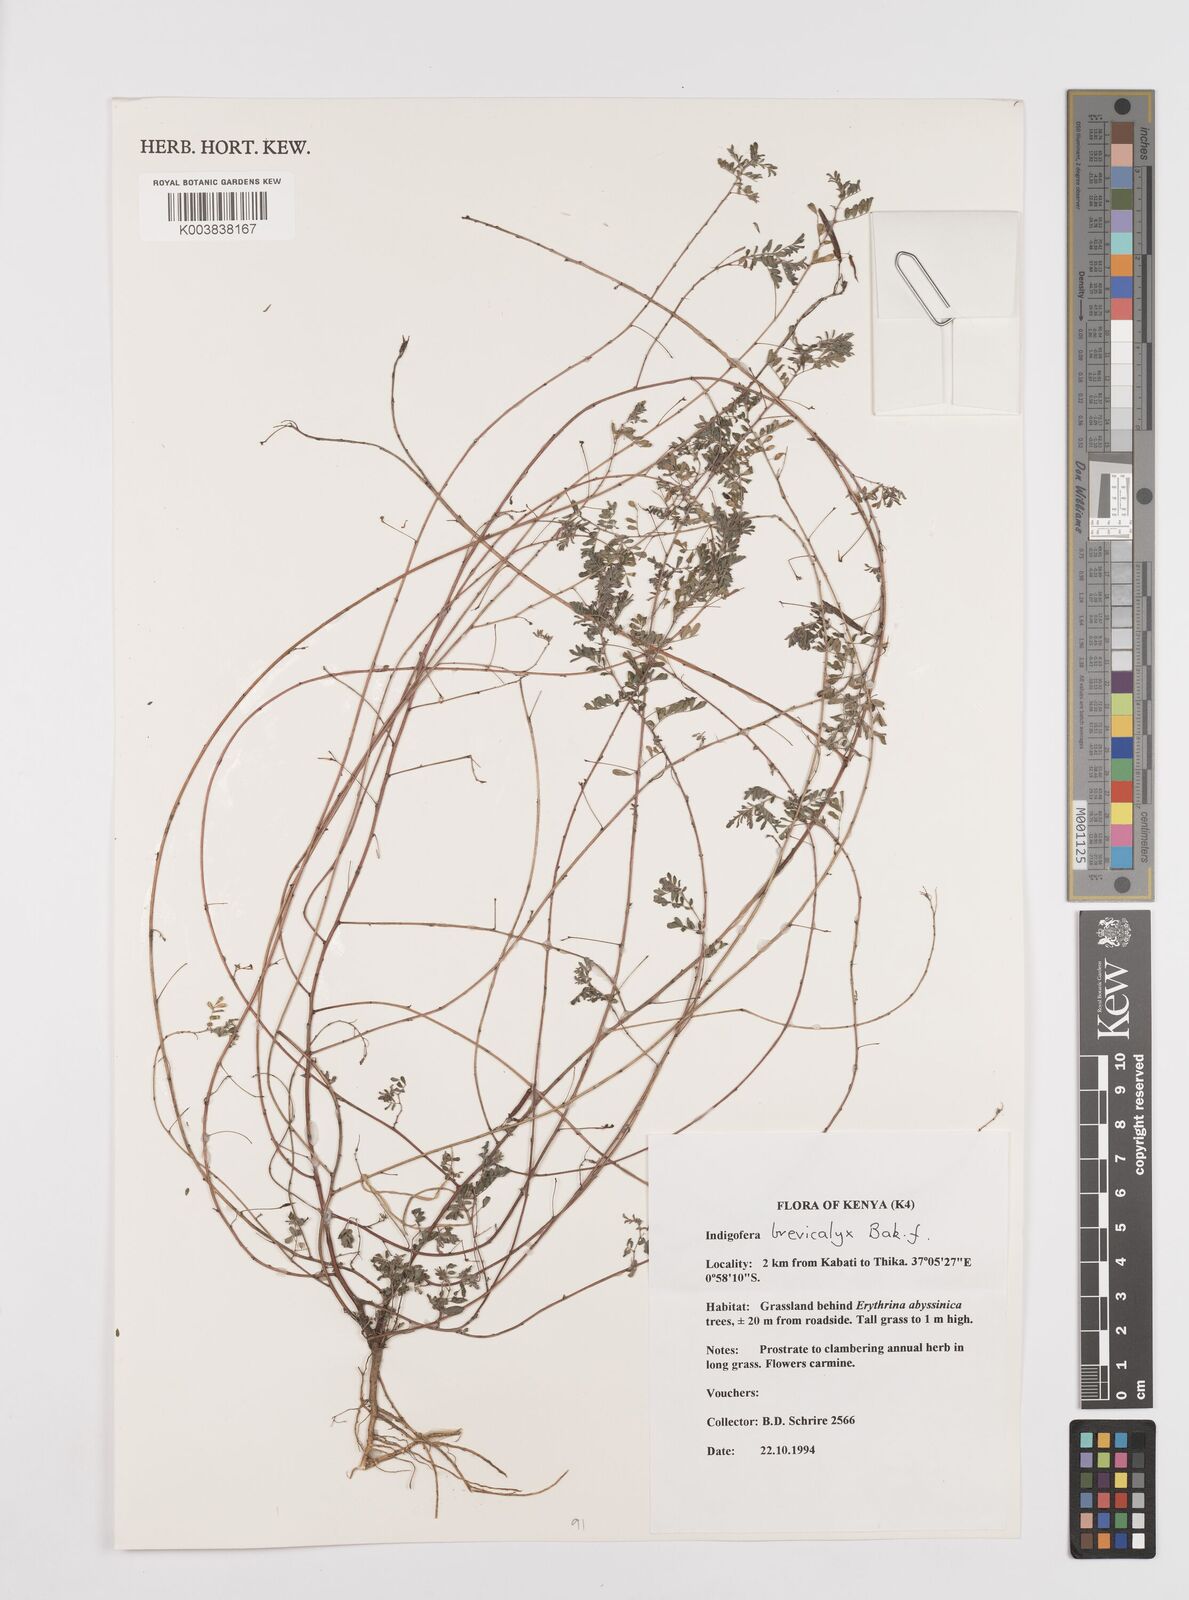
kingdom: Plantae
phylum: Tracheophyta
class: Magnoliopsida
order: Fabales
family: Fabaceae
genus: Indigofera
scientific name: Indigofera brevicalyx
